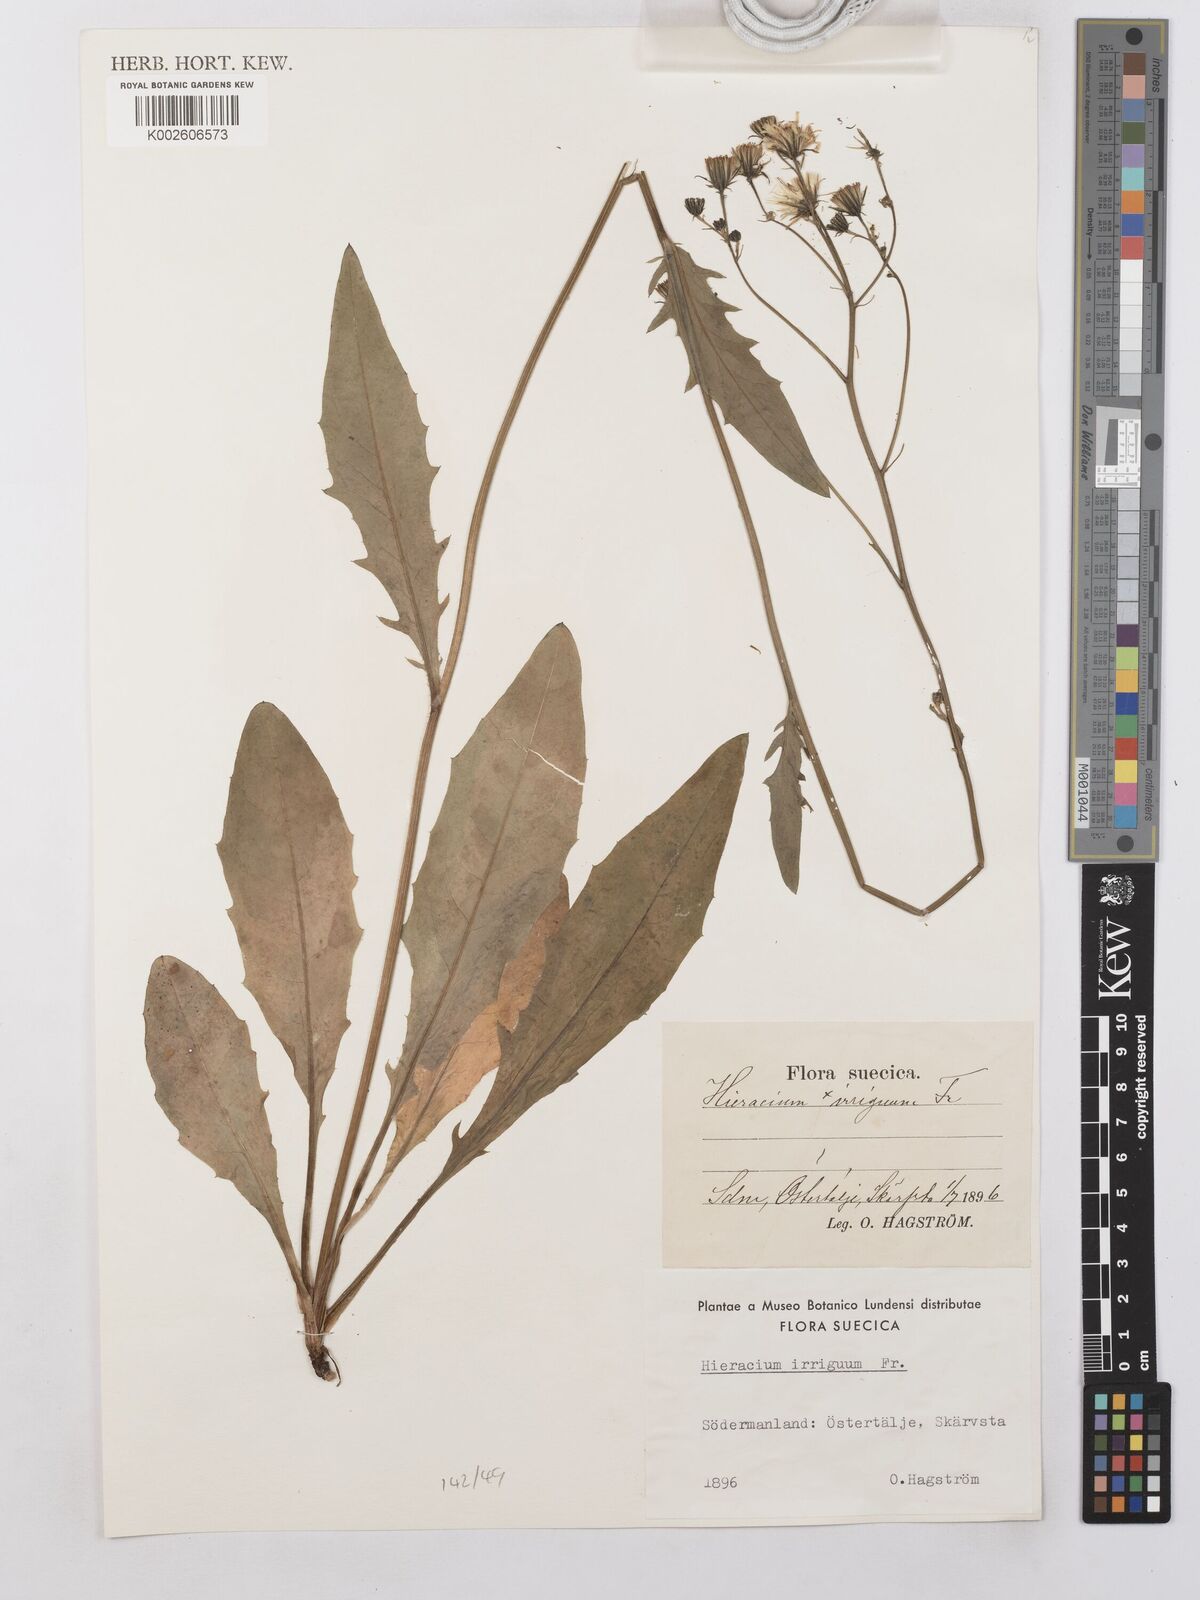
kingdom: Plantae
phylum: Tracheophyta
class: Magnoliopsida
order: Asterales
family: Asteraceae
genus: Hieracium
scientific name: Hieracium lachenalii
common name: Common hawkweed
